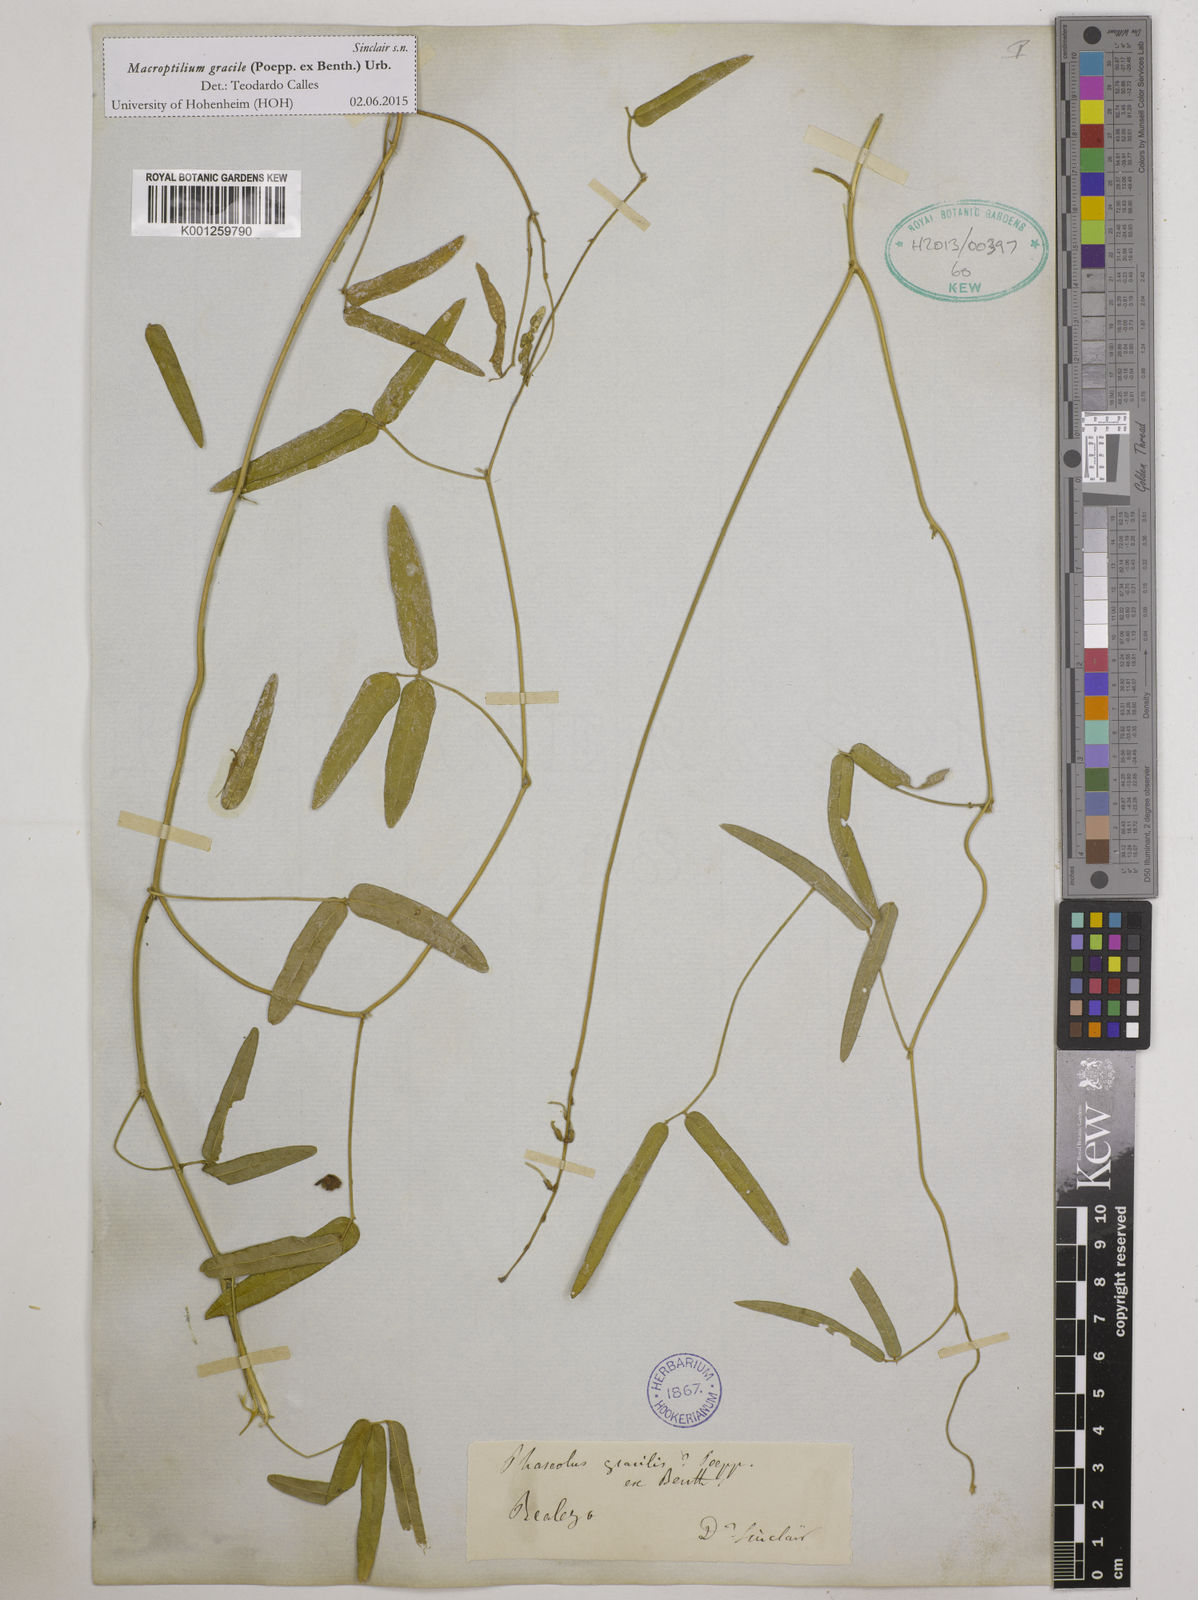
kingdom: Plantae
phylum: Tracheophyta
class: Magnoliopsida
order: Fabales
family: Fabaceae
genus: Macroptilium
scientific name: Macroptilium gracile
